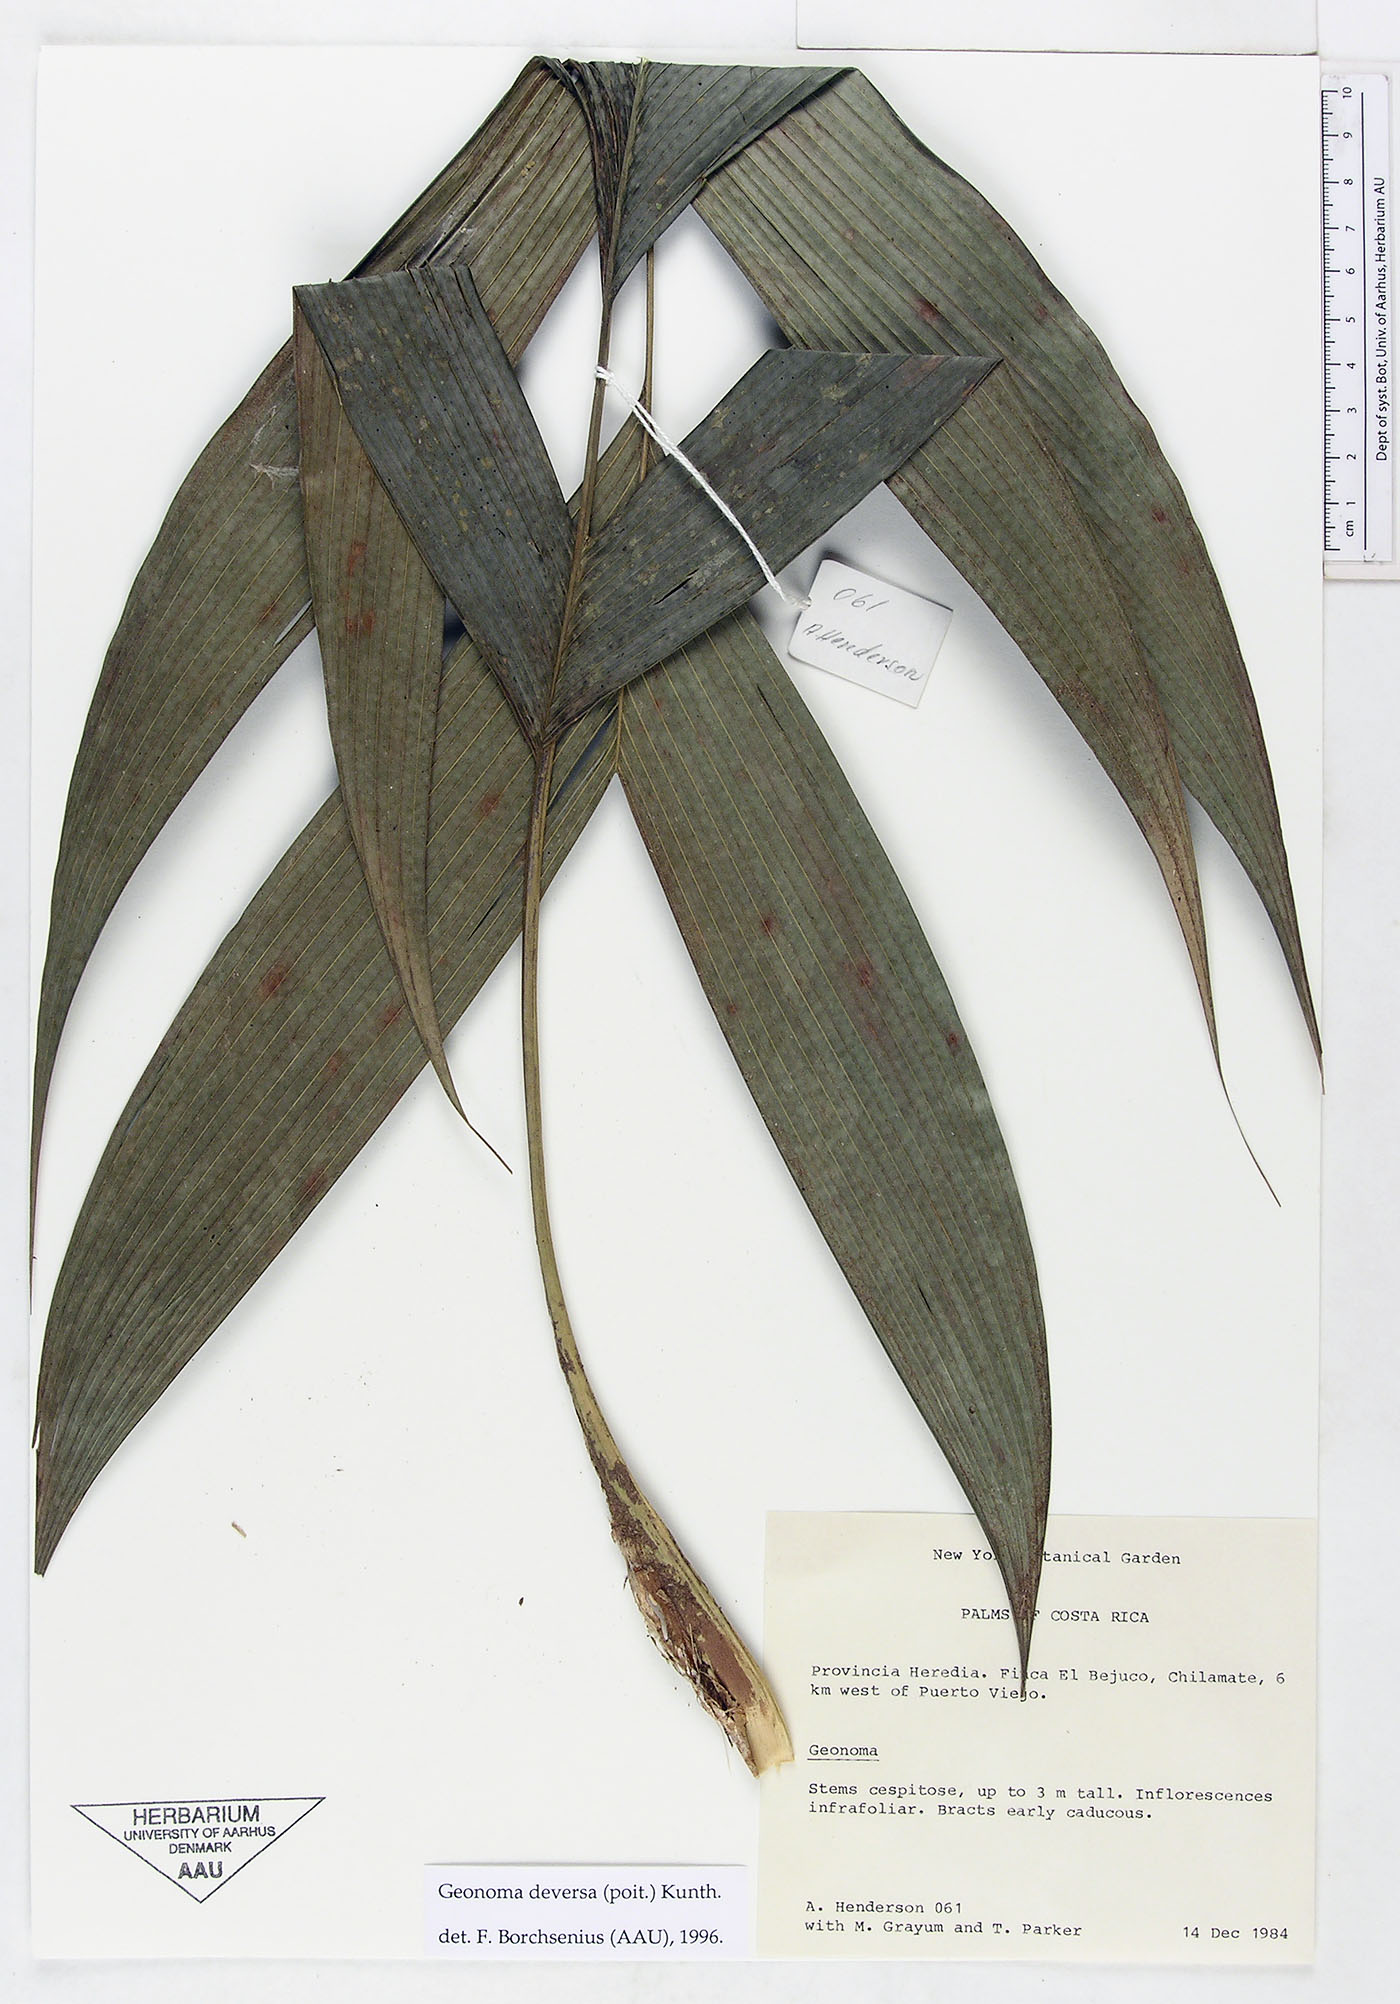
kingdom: Plantae
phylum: Tracheophyta
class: Liliopsida
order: Arecales
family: Arecaceae
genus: Geonoma
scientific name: Geonoma deversa
